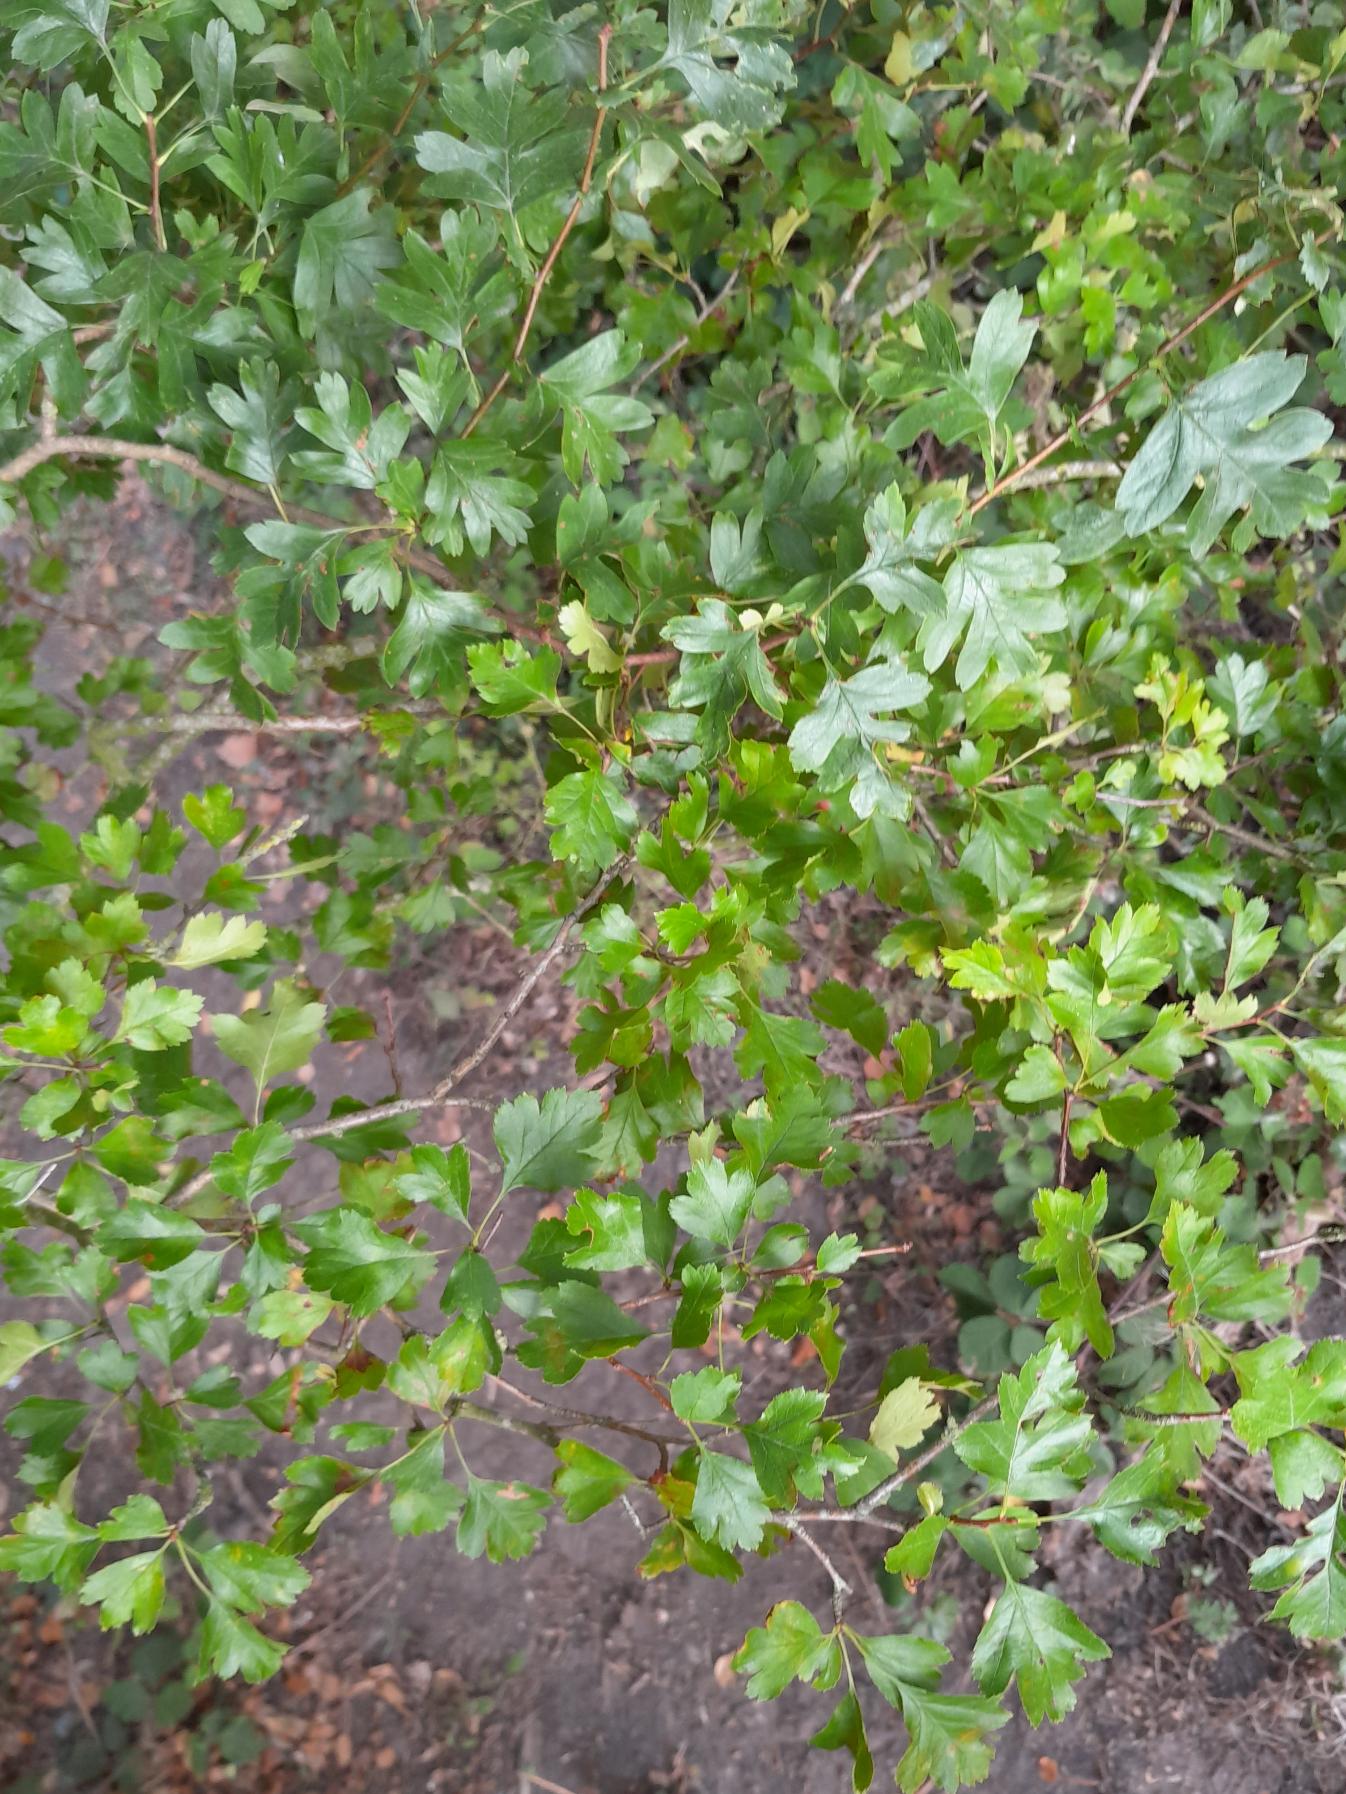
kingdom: Plantae
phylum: Tracheophyta
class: Magnoliopsida
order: Rosales
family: Rosaceae
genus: Crataegus
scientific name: Crataegus monogyna
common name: Engriflet hvidtjørn
